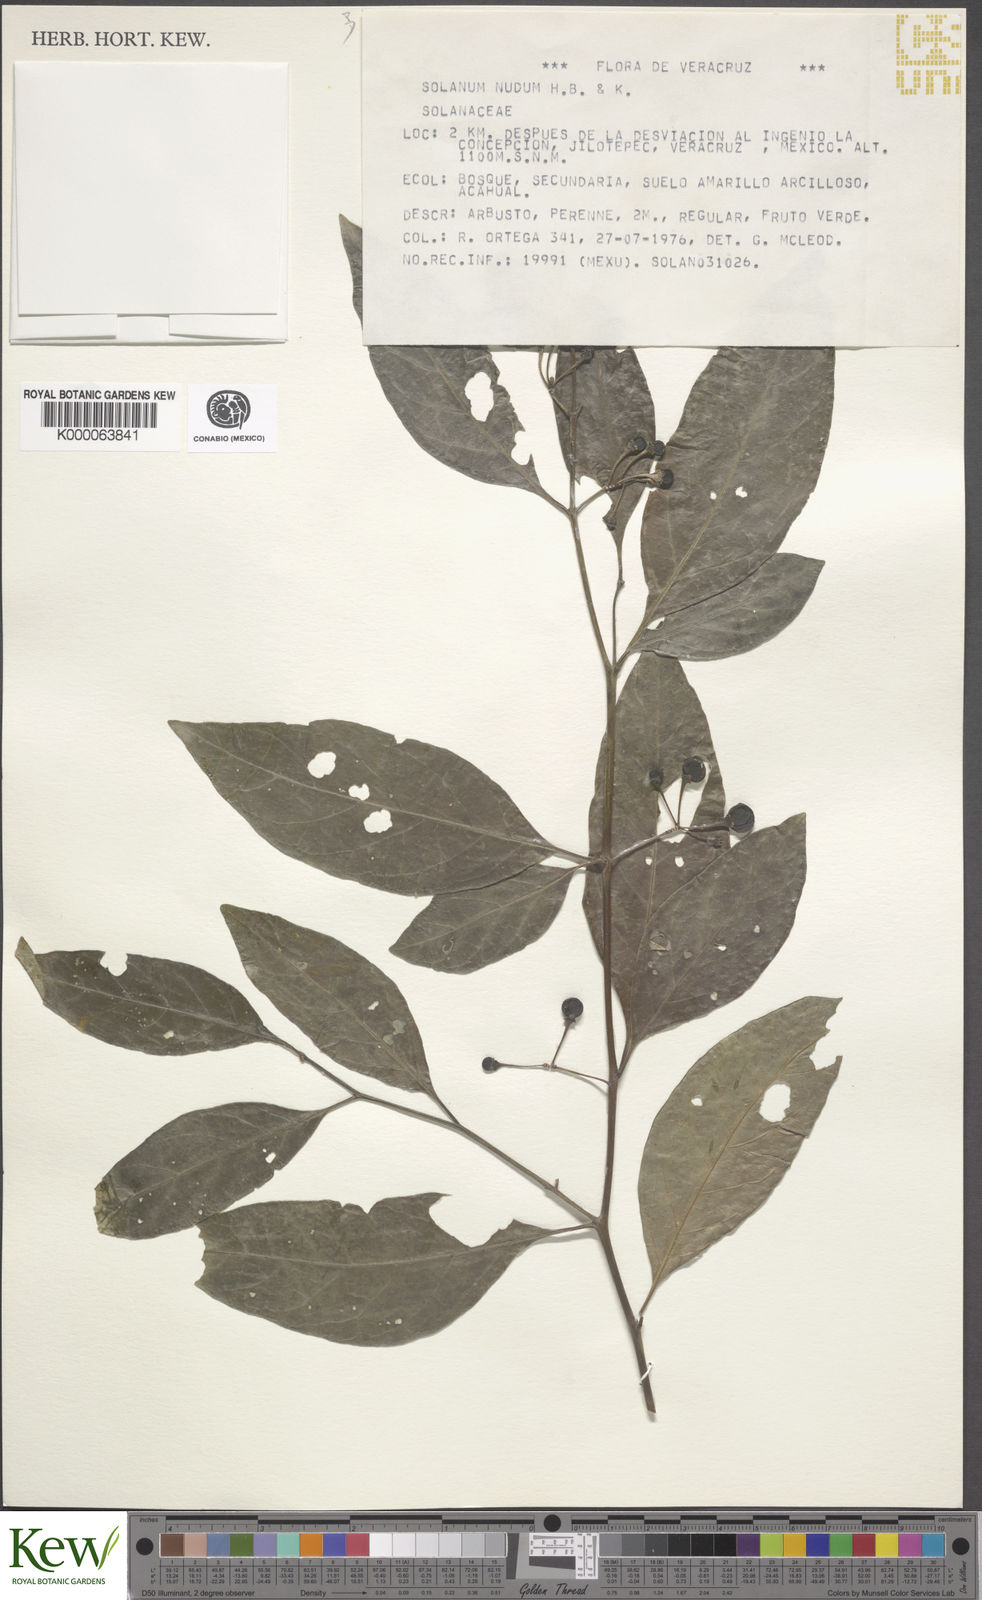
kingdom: Plantae
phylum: Tracheophyta
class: Magnoliopsida
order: Solanales
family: Solanaceae
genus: Solanum
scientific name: Solanum nudum
